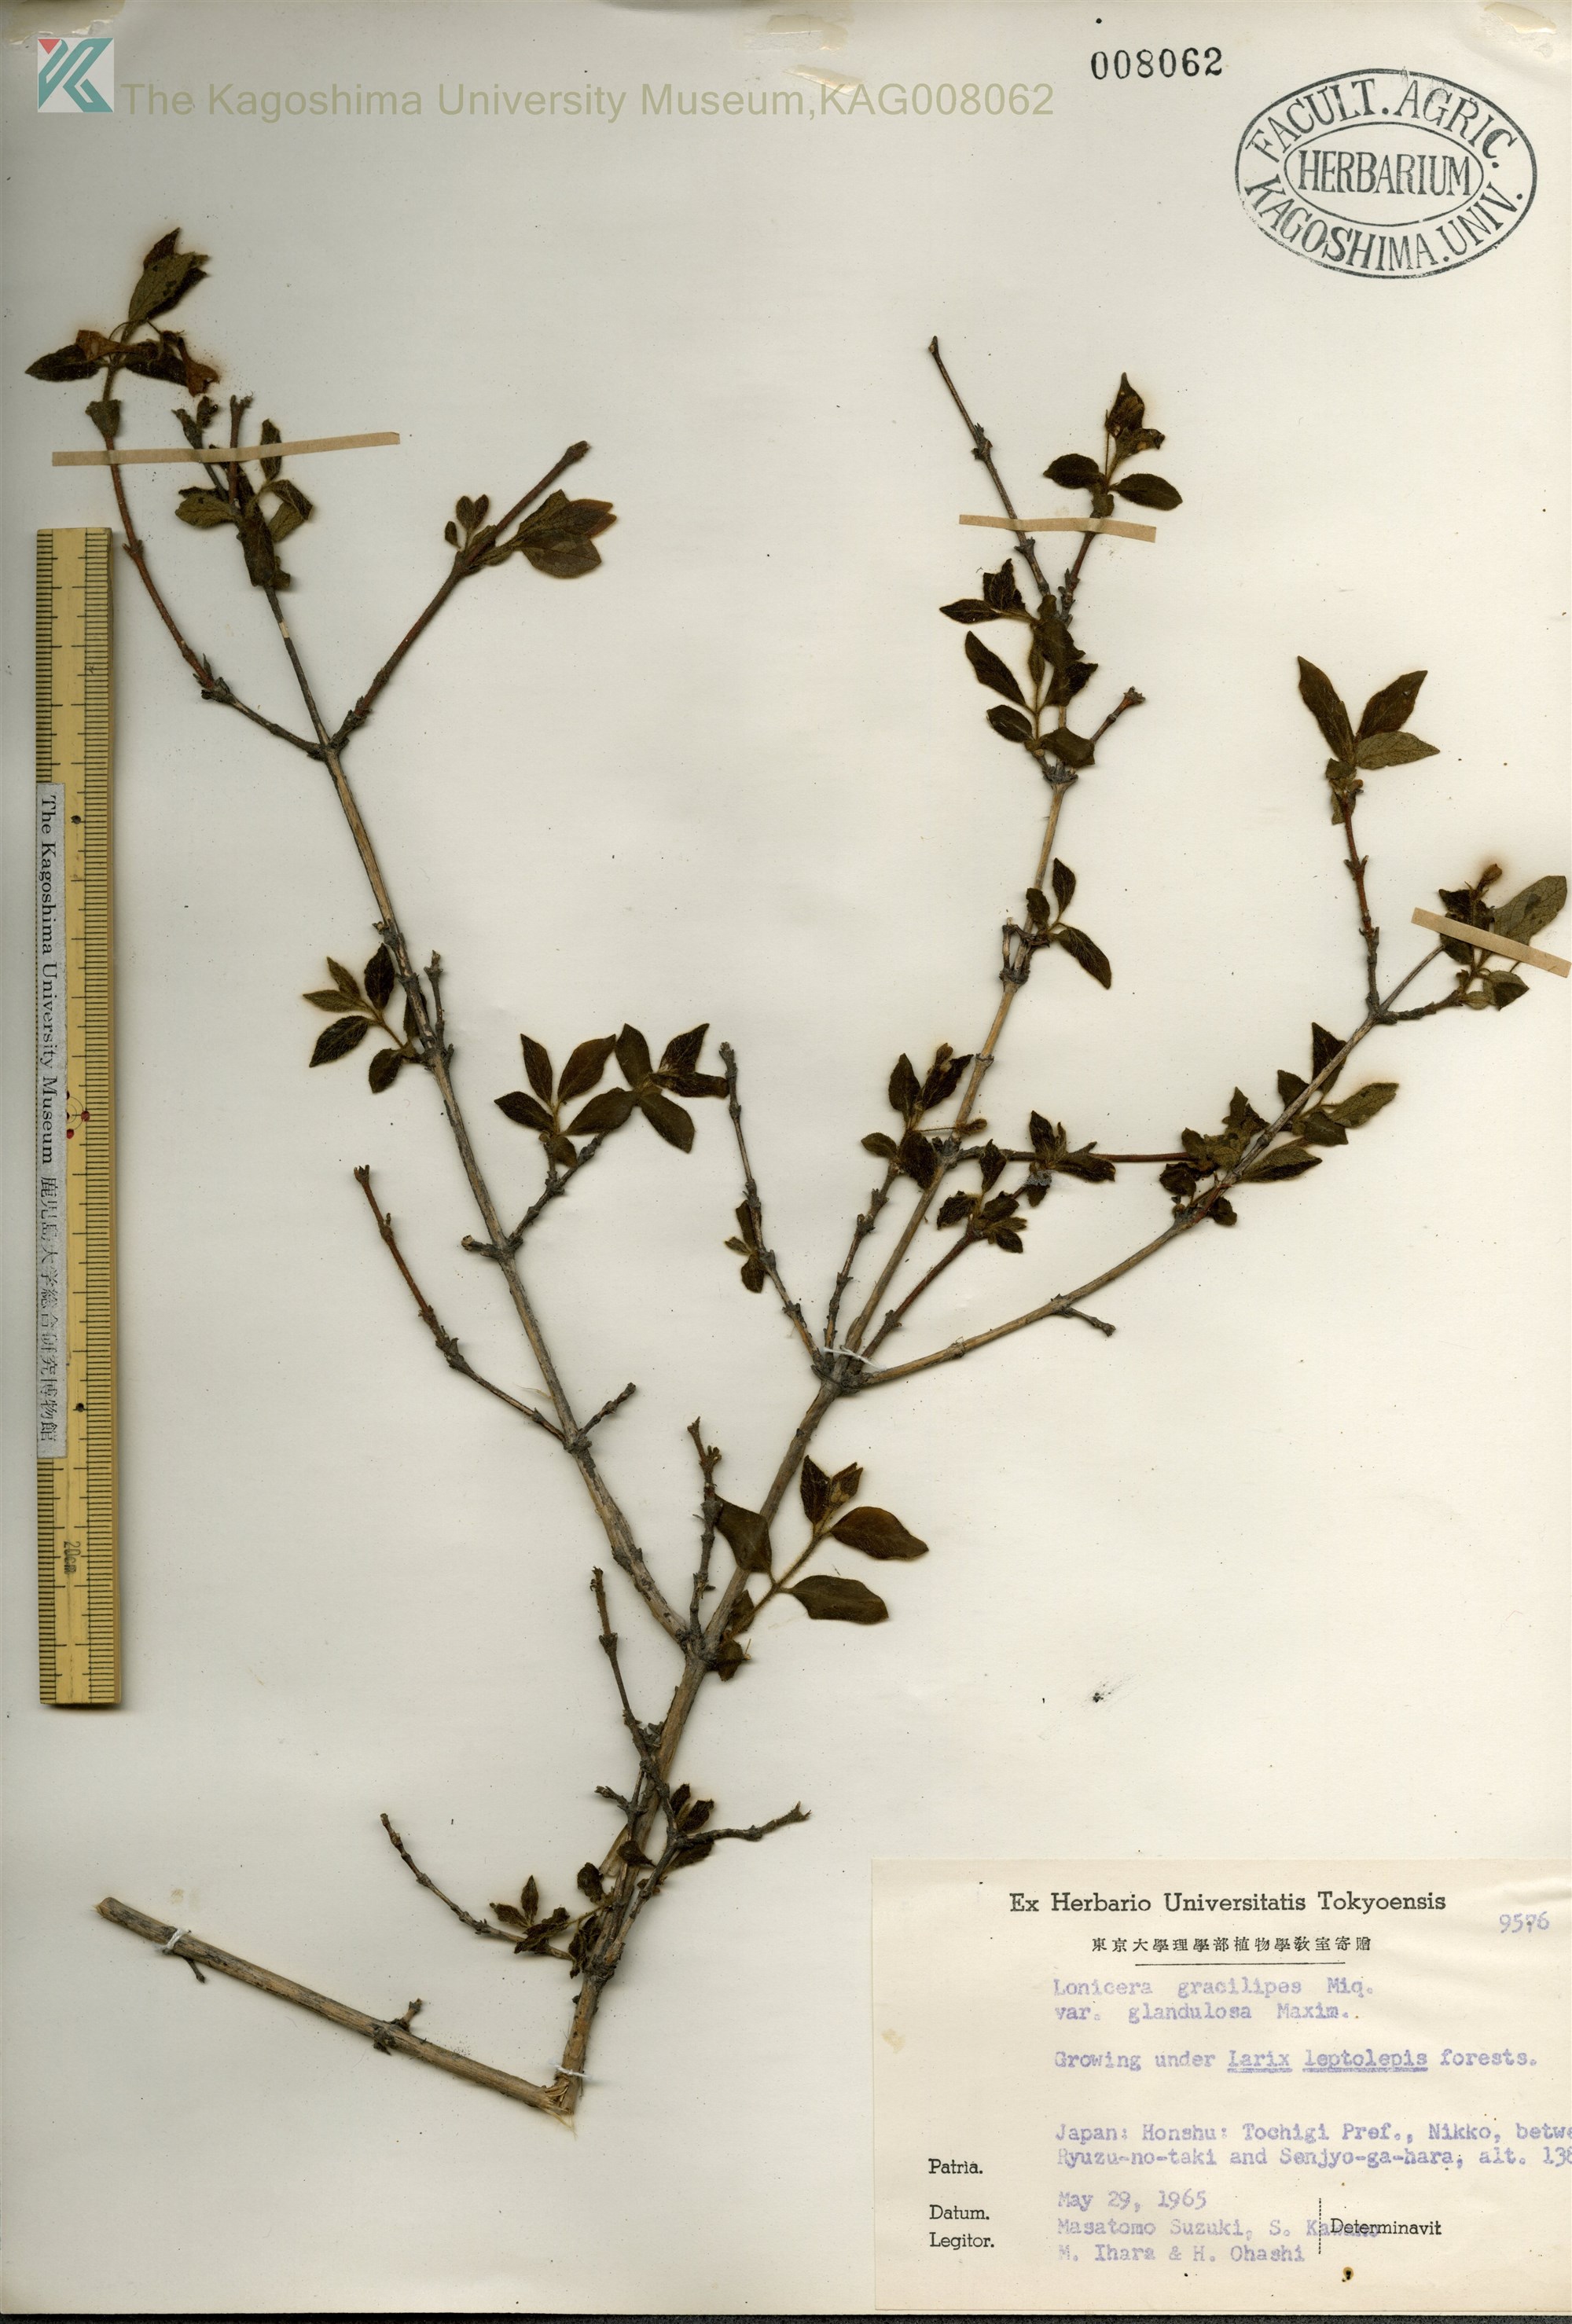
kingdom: Plantae
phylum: Tracheophyta
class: Magnoliopsida
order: Dipsacales
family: Caprifoliaceae
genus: Lonicera
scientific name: Lonicera gracilipes
